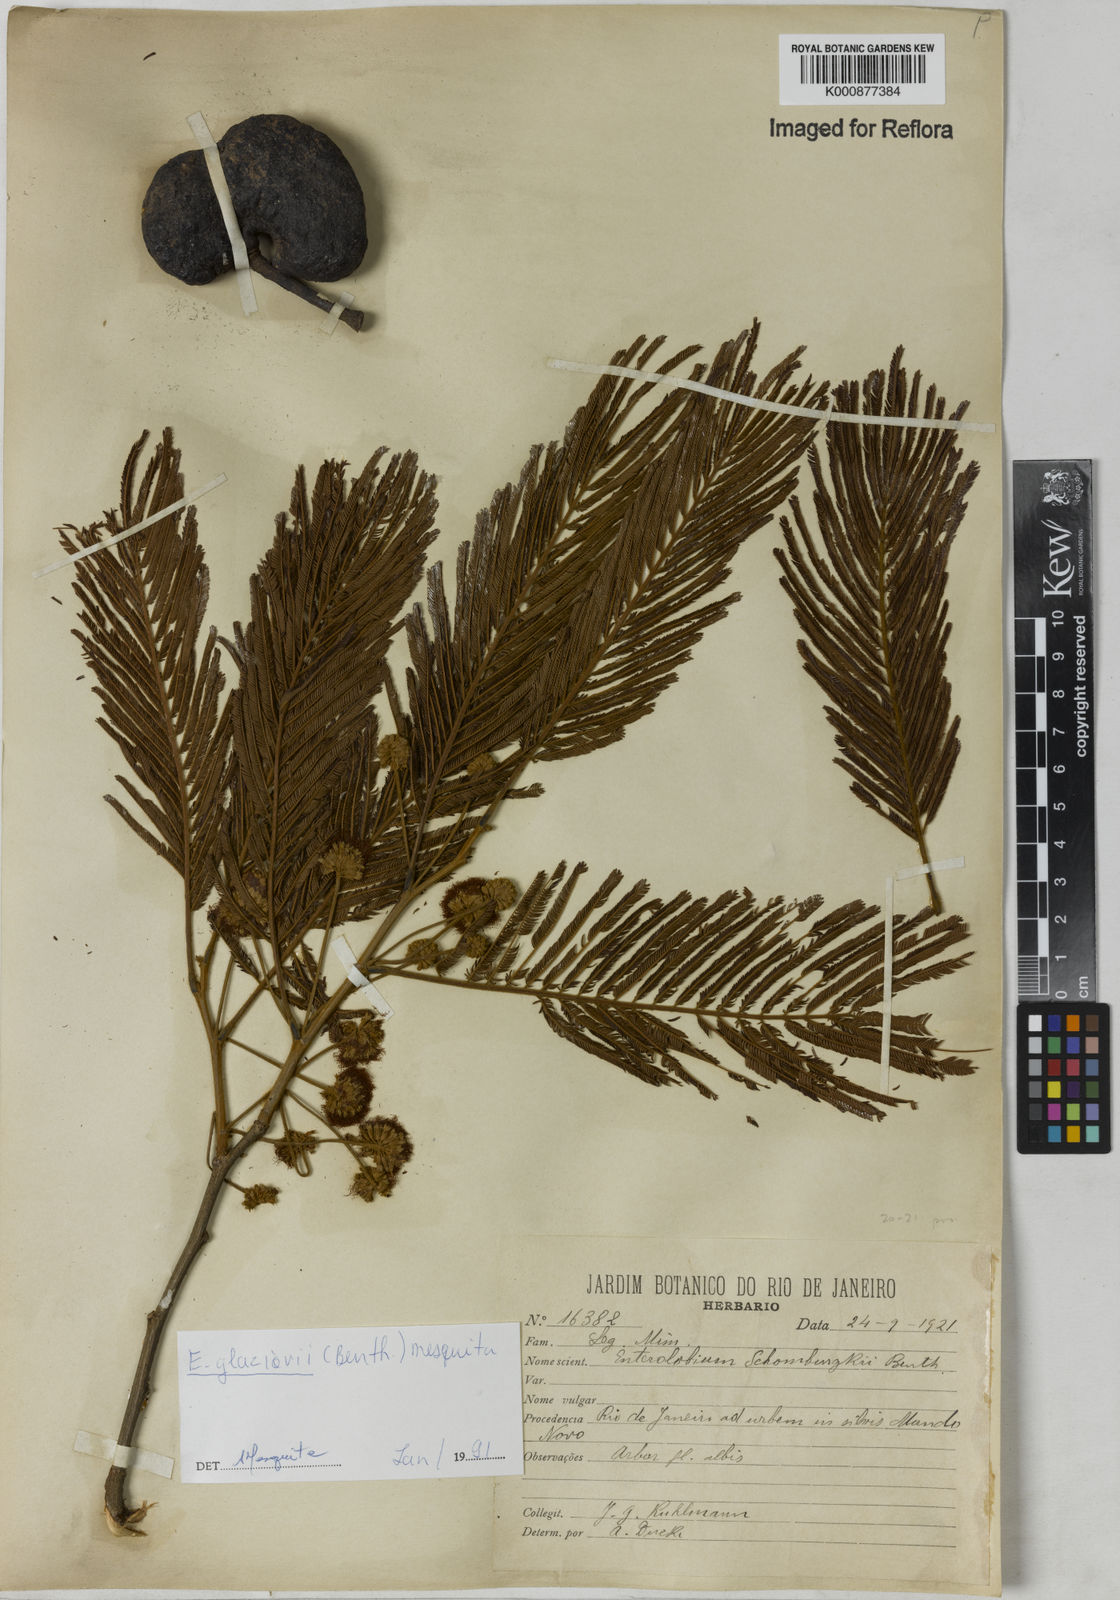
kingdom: Plantae
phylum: Tracheophyta
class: Magnoliopsida
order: Fabales
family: Fabaceae
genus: Enterolobium
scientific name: Enterolobium glaziovii
